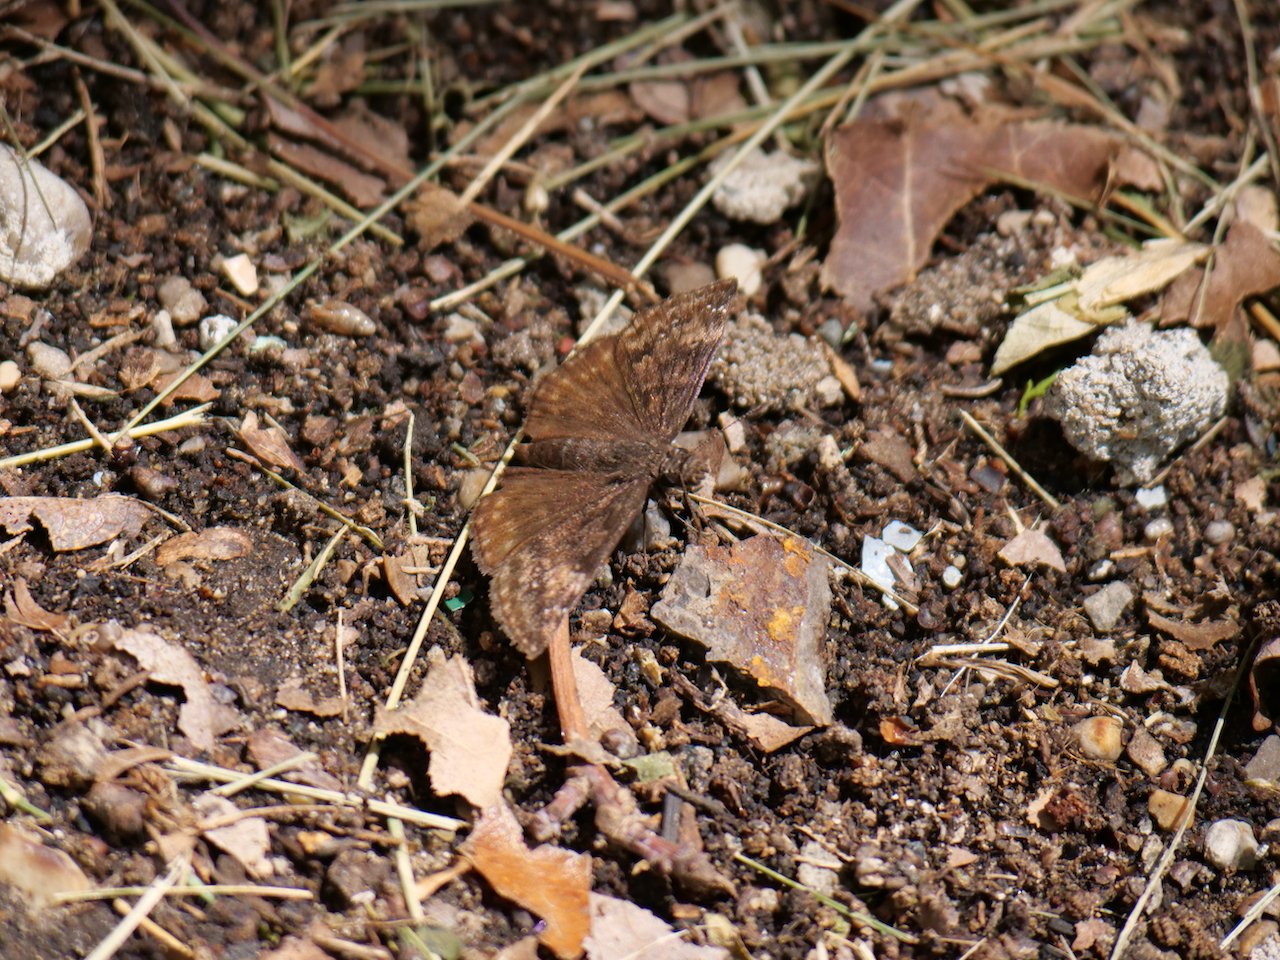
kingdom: Animalia
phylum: Arthropoda
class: Insecta
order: Lepidoptera
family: Hesperiidae
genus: Gesta
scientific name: Gesta
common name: Wild Indigo Duskywing
